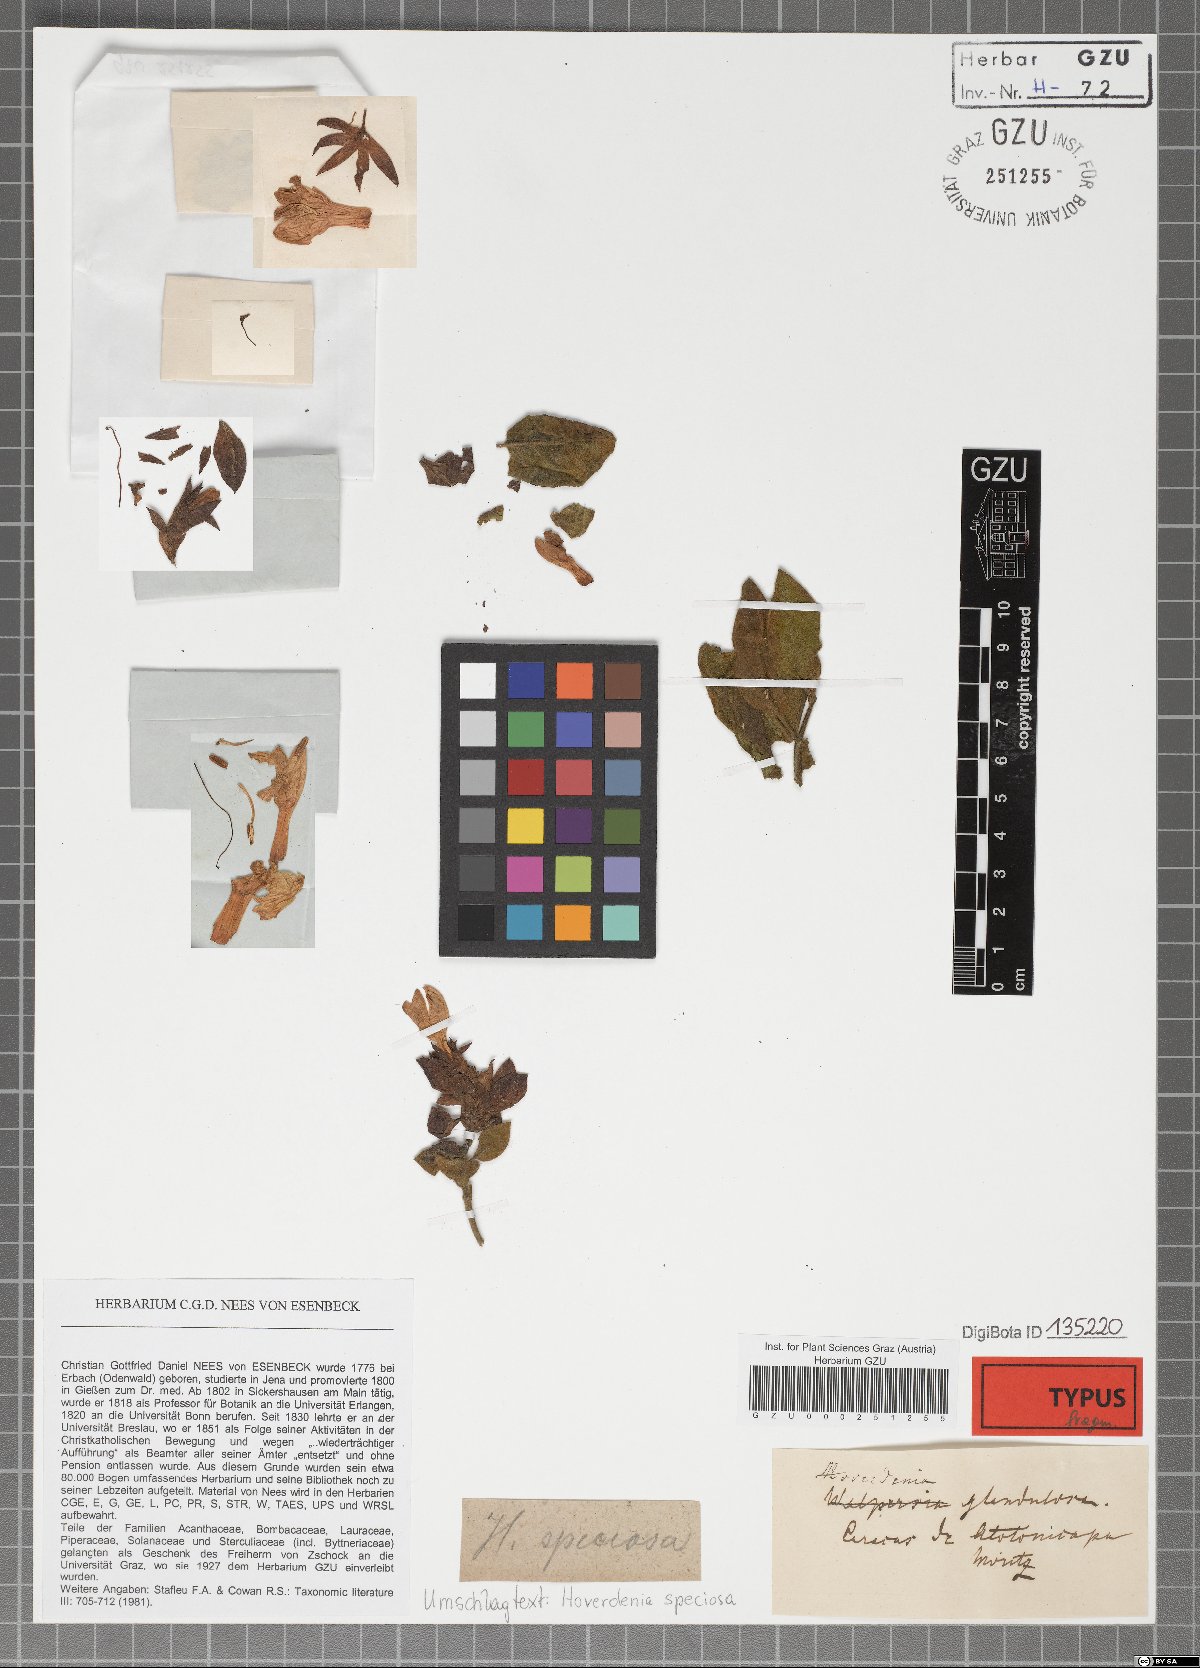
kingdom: Plantae
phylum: Tracheophyta
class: Magnoliopsida
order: Lamiales
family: Acanthaceae
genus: Hoverdenia
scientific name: Hoverdenia speciosa
